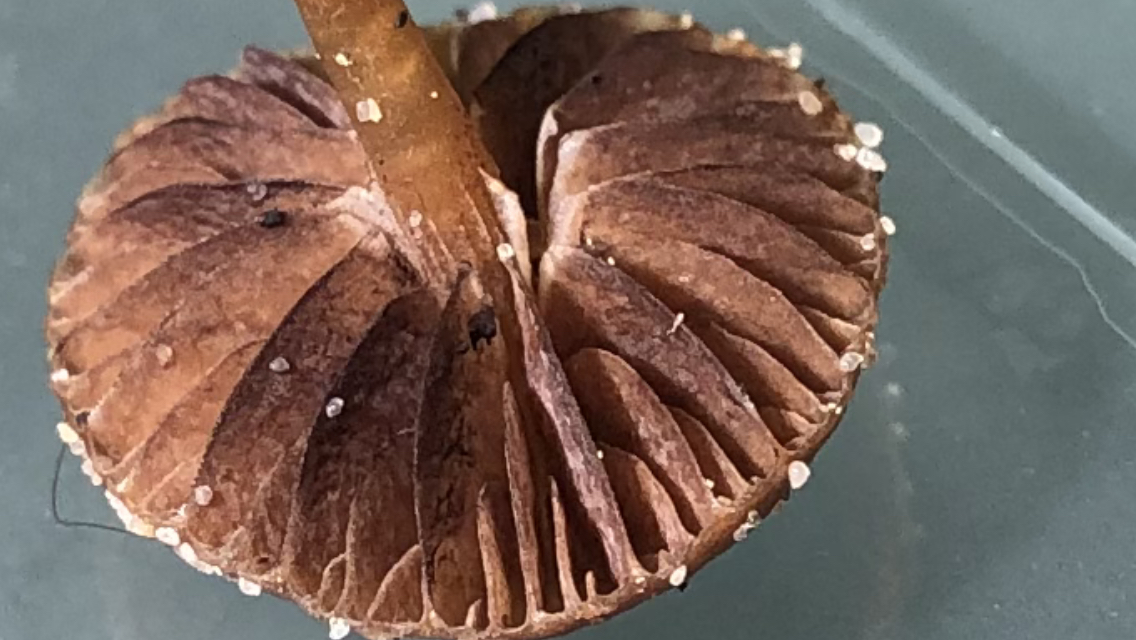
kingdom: Fungi
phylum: Basidiomycota
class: Agaricomycetes
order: Agaricales
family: Strophariaceae
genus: Deconica
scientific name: Deconica montana
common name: rødbrun stråhat
